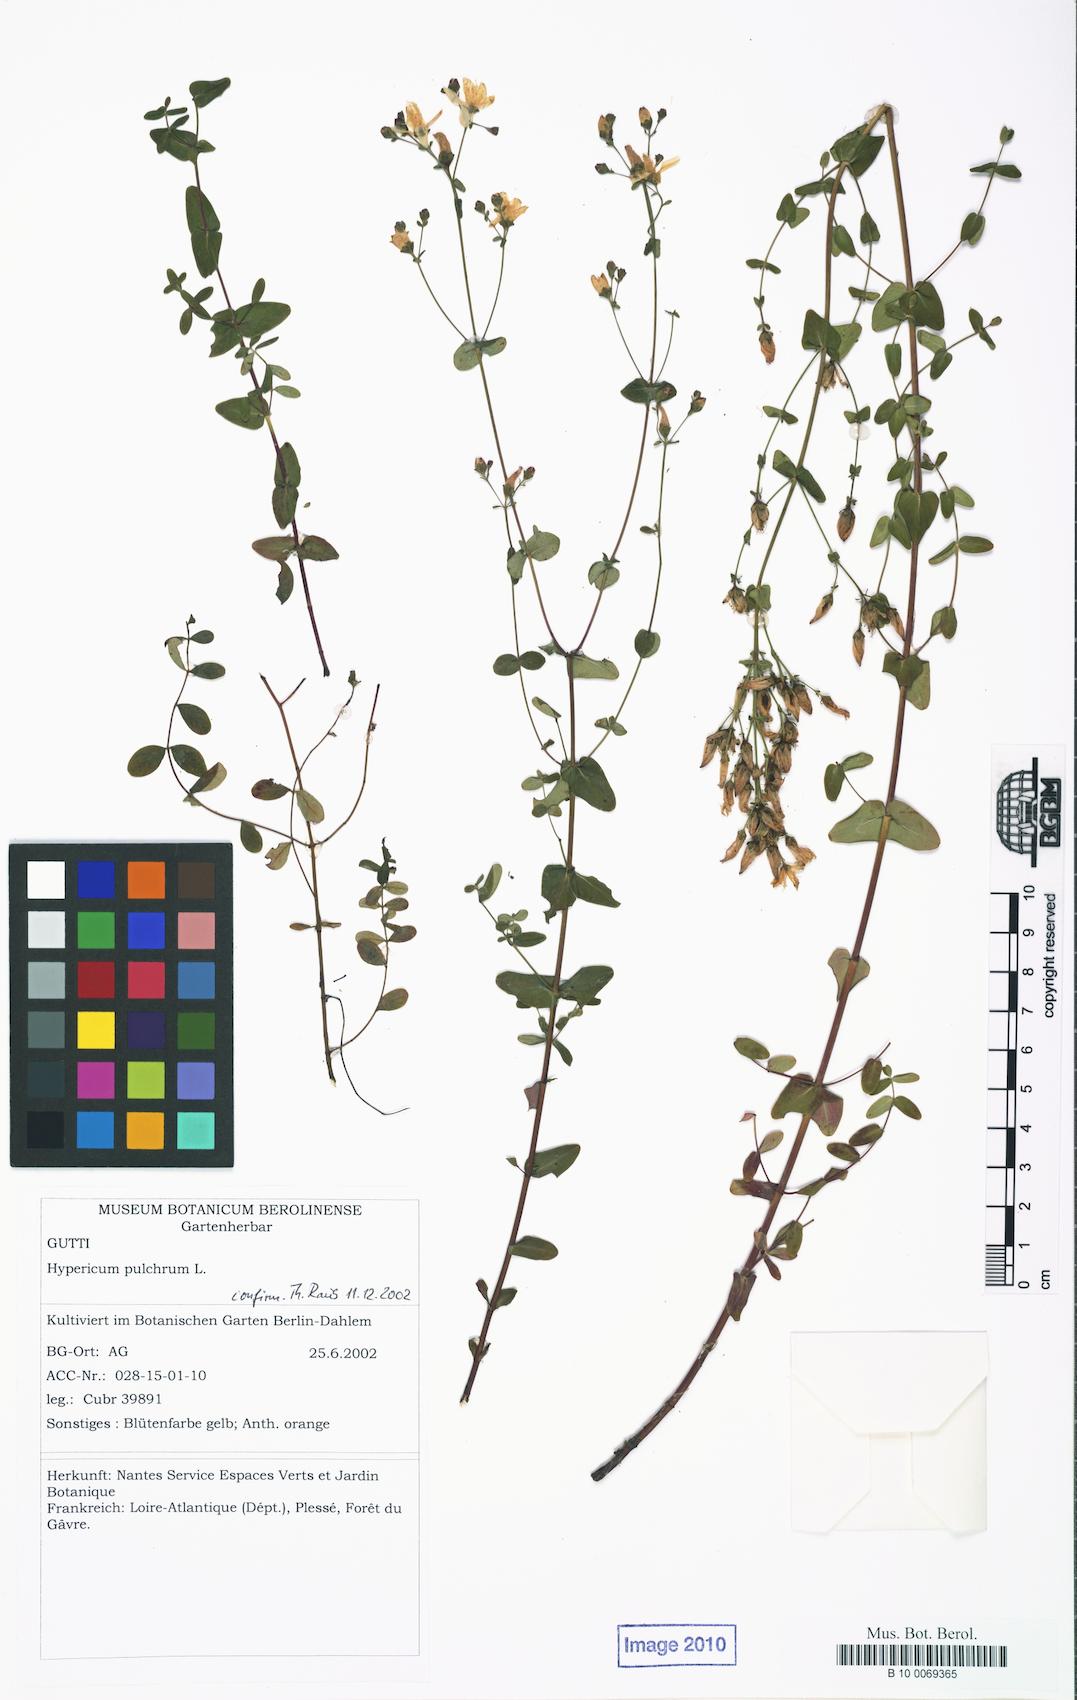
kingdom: Plantae
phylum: Tracheophyta
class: Magnoliopsida
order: Malpighiales
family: Hypericaceae
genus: Hypericum
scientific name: Hypericum pulchrum
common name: Slender st. john's-wort
